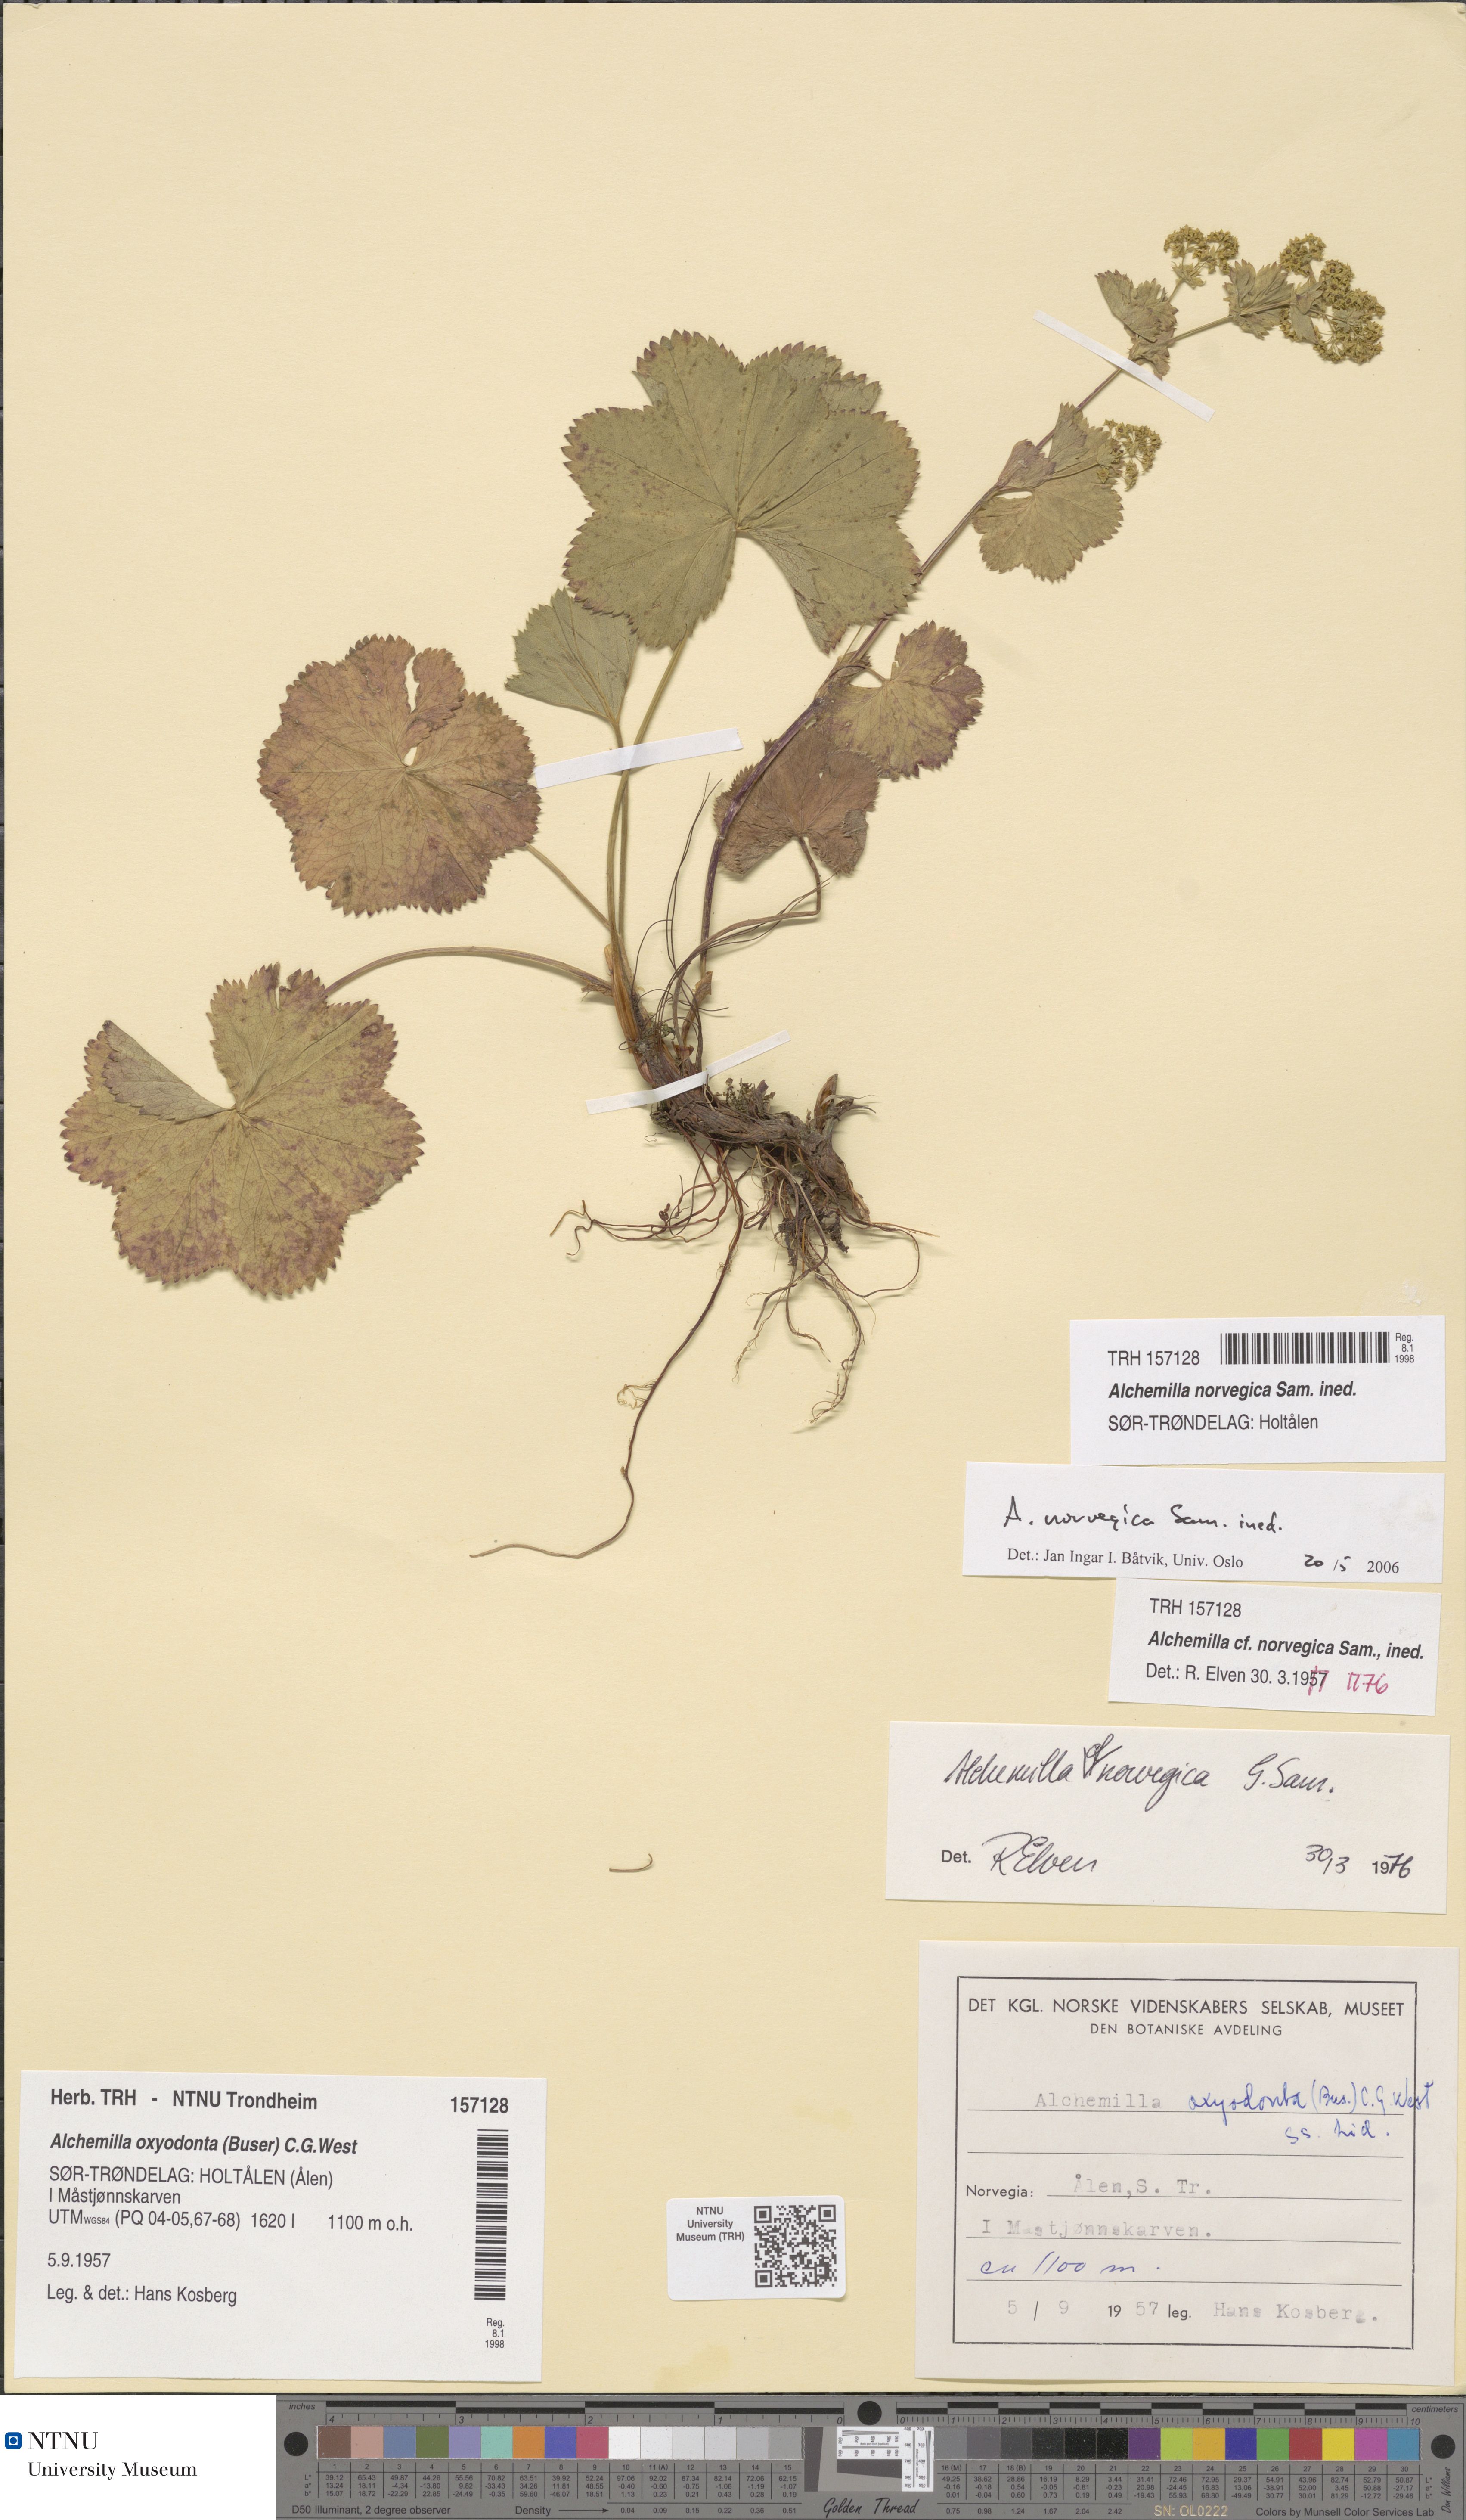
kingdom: Plantae
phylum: Tracheophyta
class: Magnoliopsida
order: Rosales
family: Rosaceae
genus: Alchemilla
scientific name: Alchemilla norvegica
